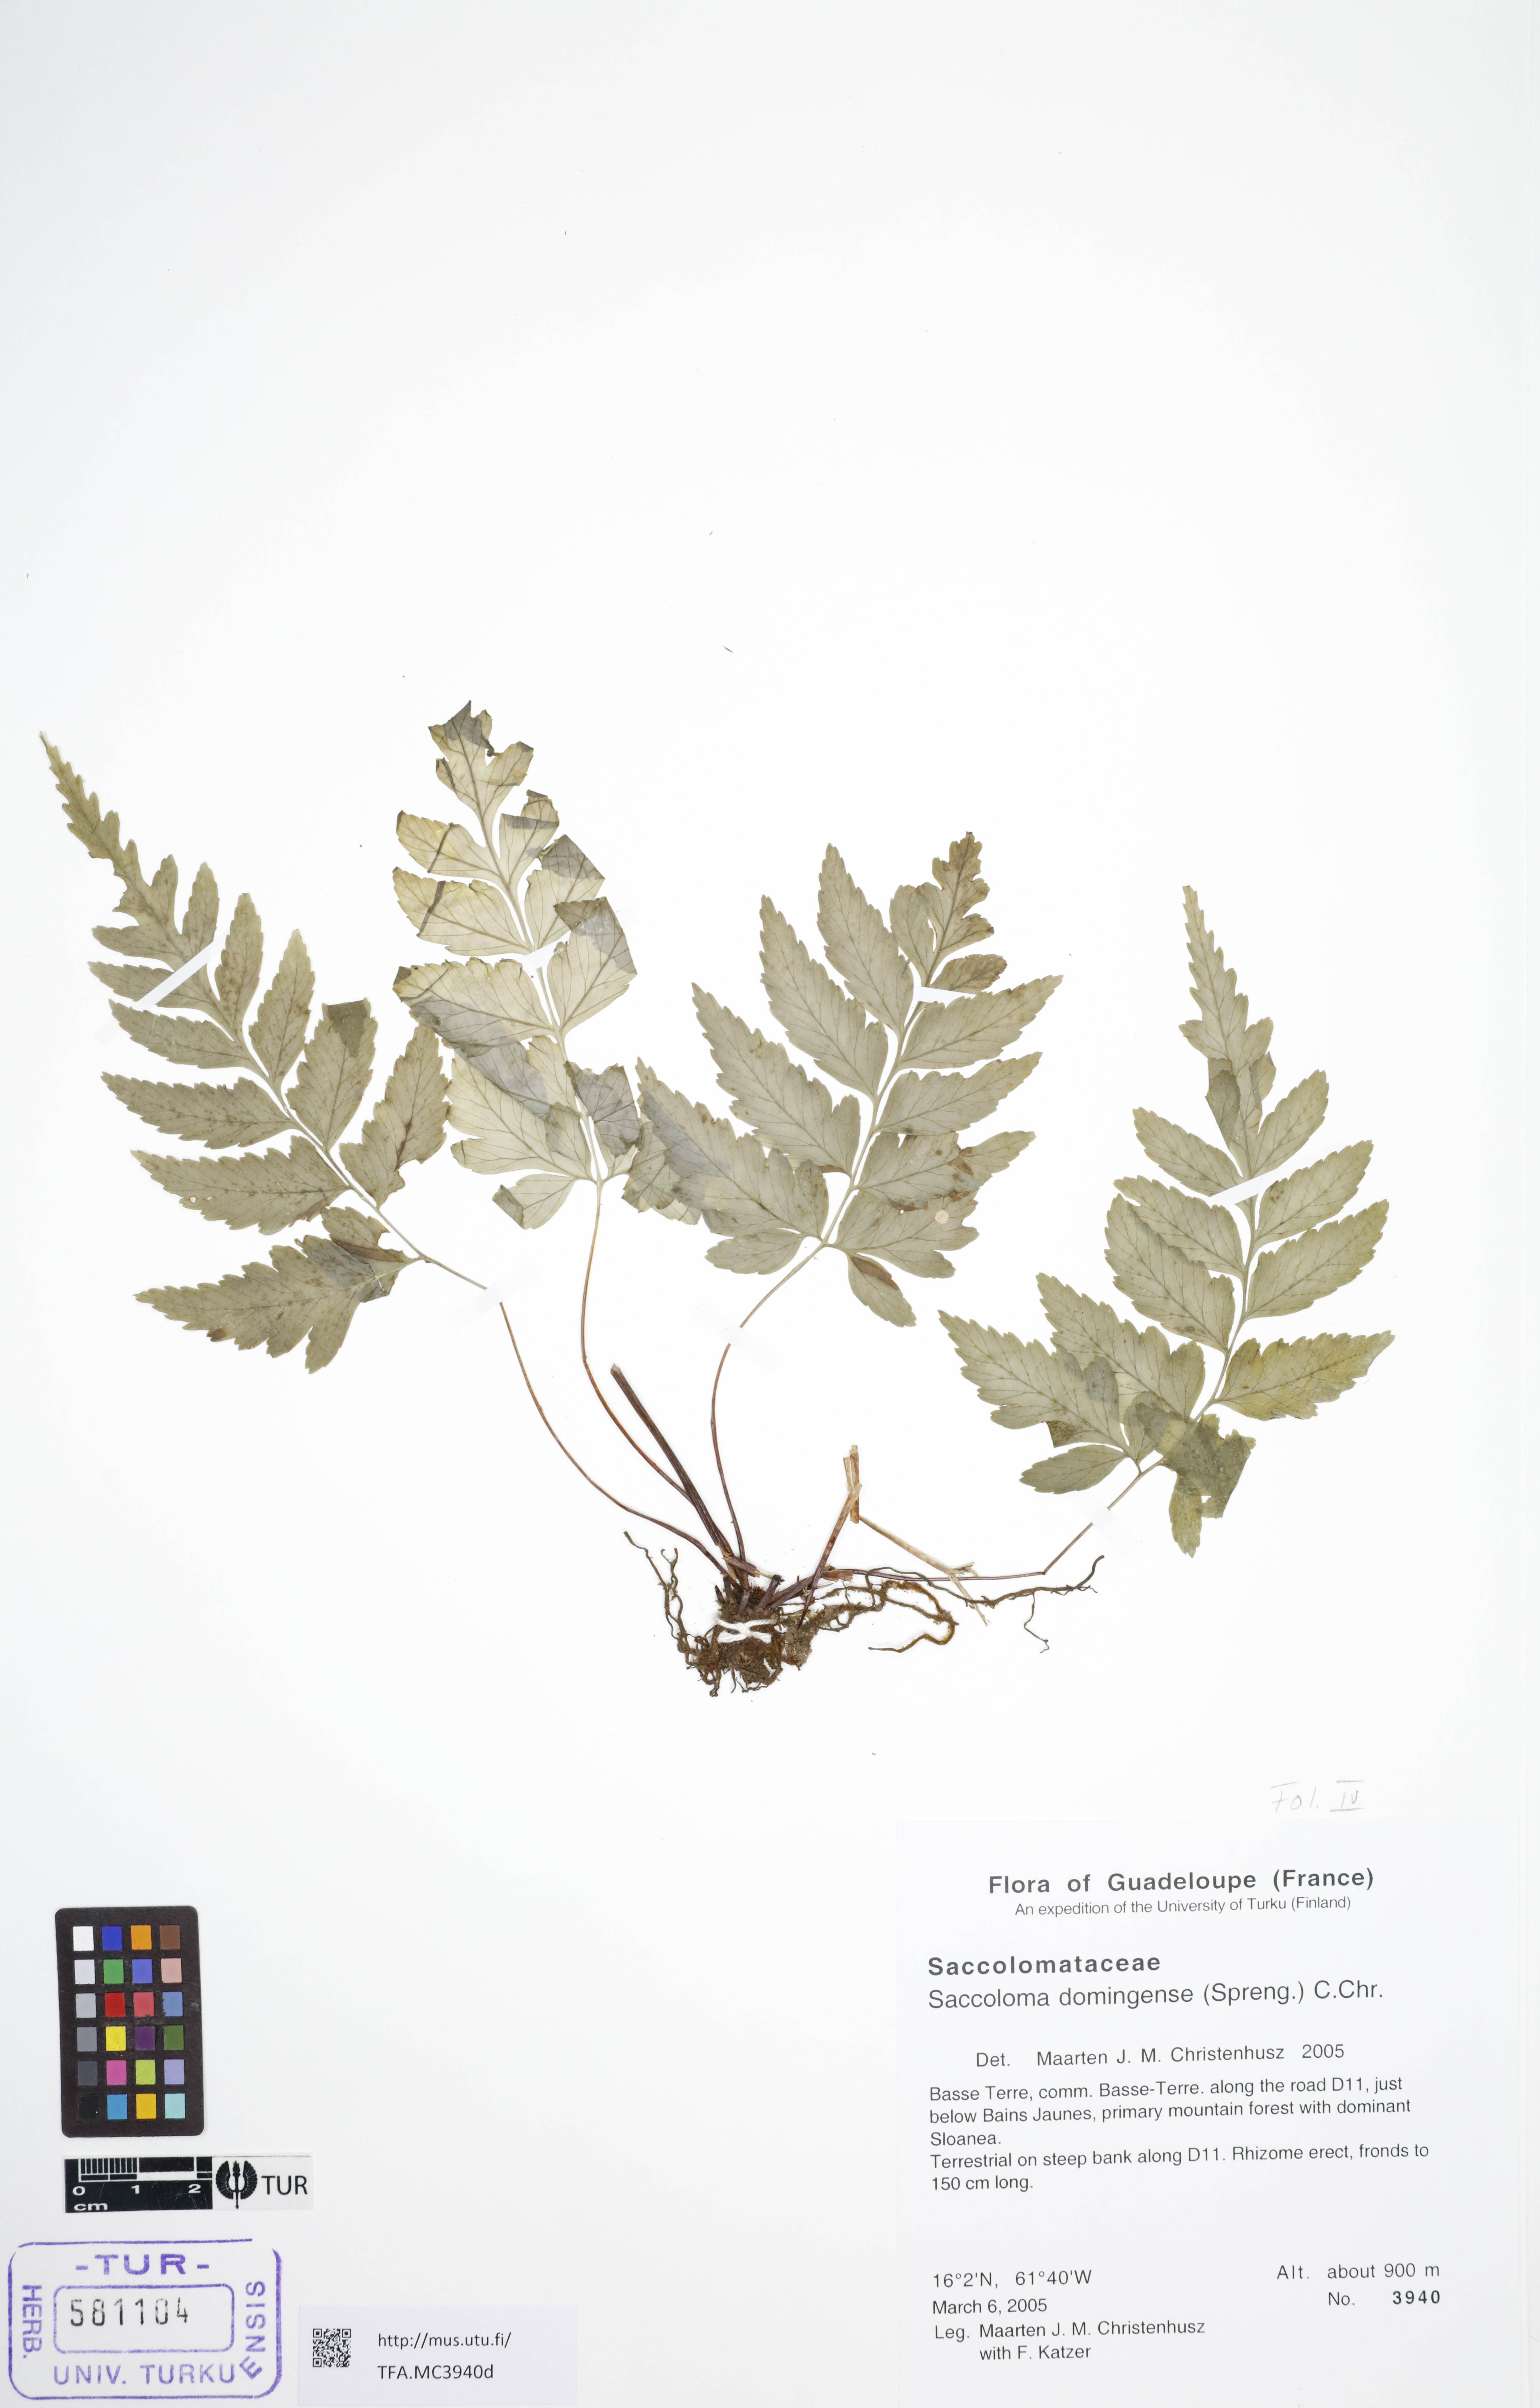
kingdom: Plantae
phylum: Tracheophyta
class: Polypodiopsida
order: Polypodiales
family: Saccolomataceae
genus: Saccoloma
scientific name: Saccoloma domingense
